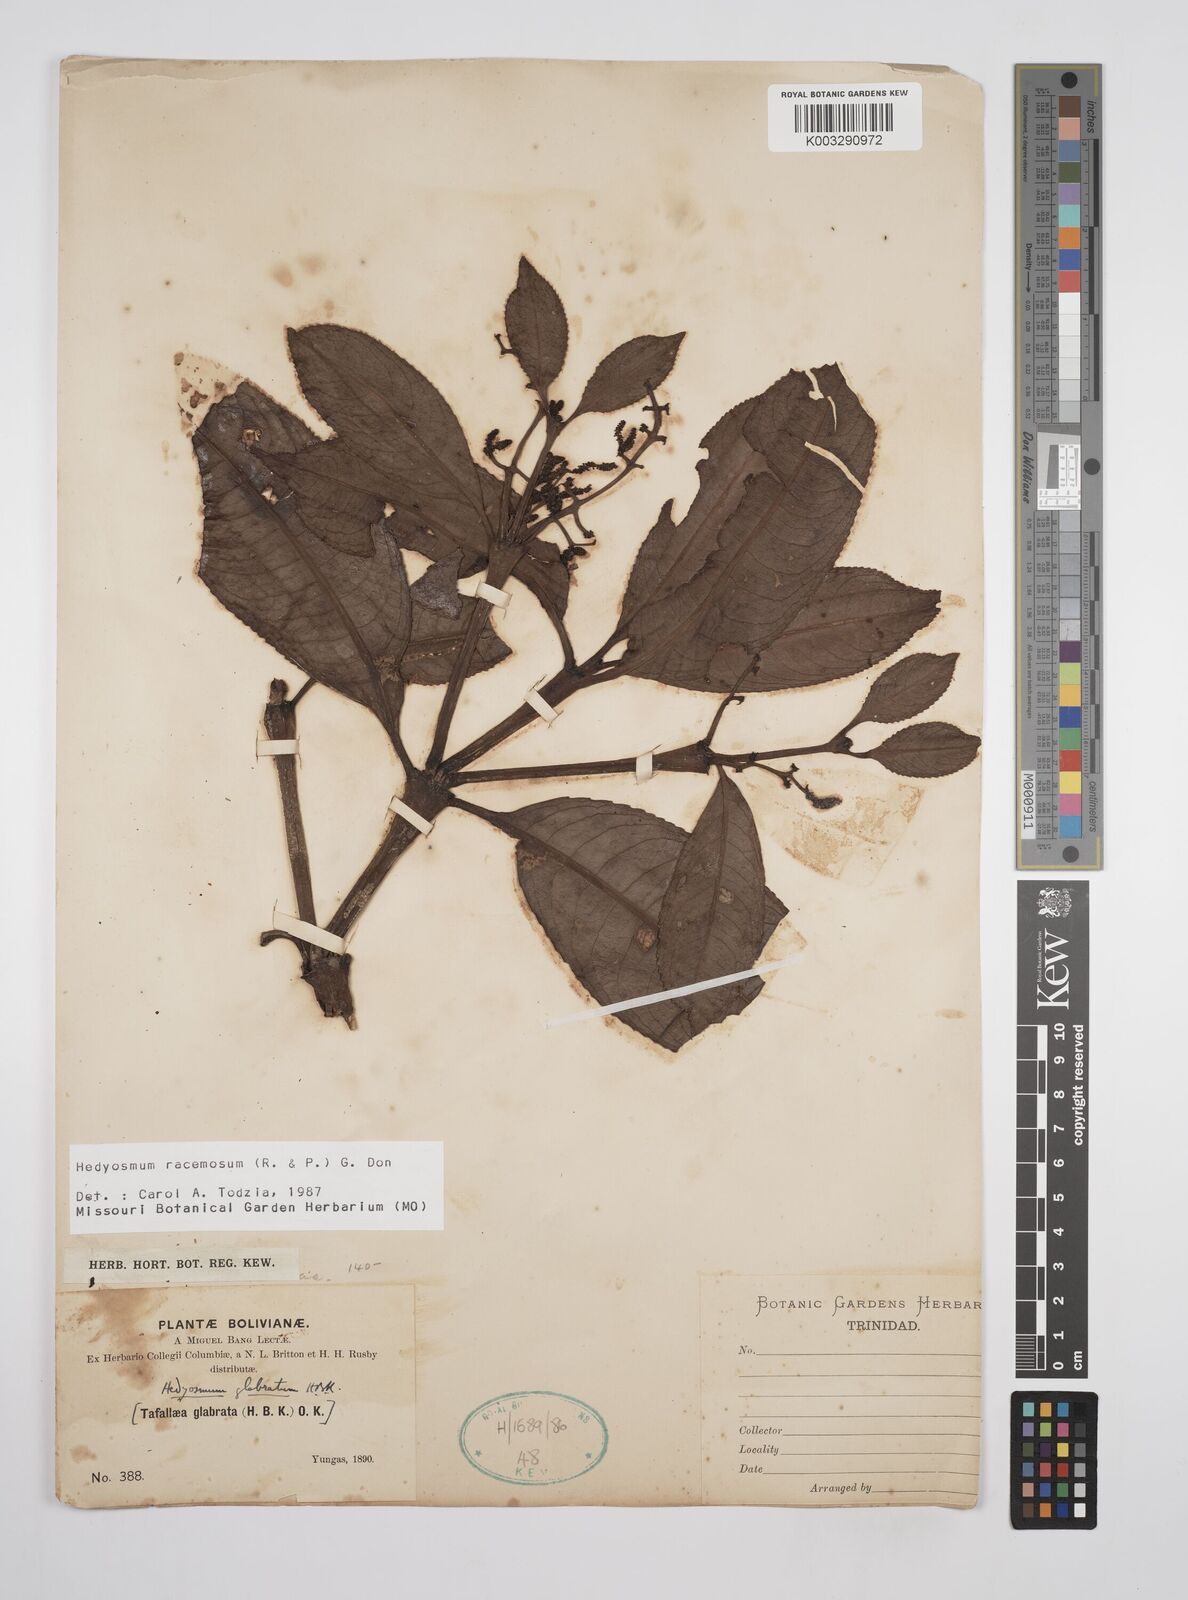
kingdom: Plantae
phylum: Tracheophyta
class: Magnoliopsida
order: Chloranthales
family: Chloranthaceae
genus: Hedyosmum
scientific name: Hedyosmum racemosum
